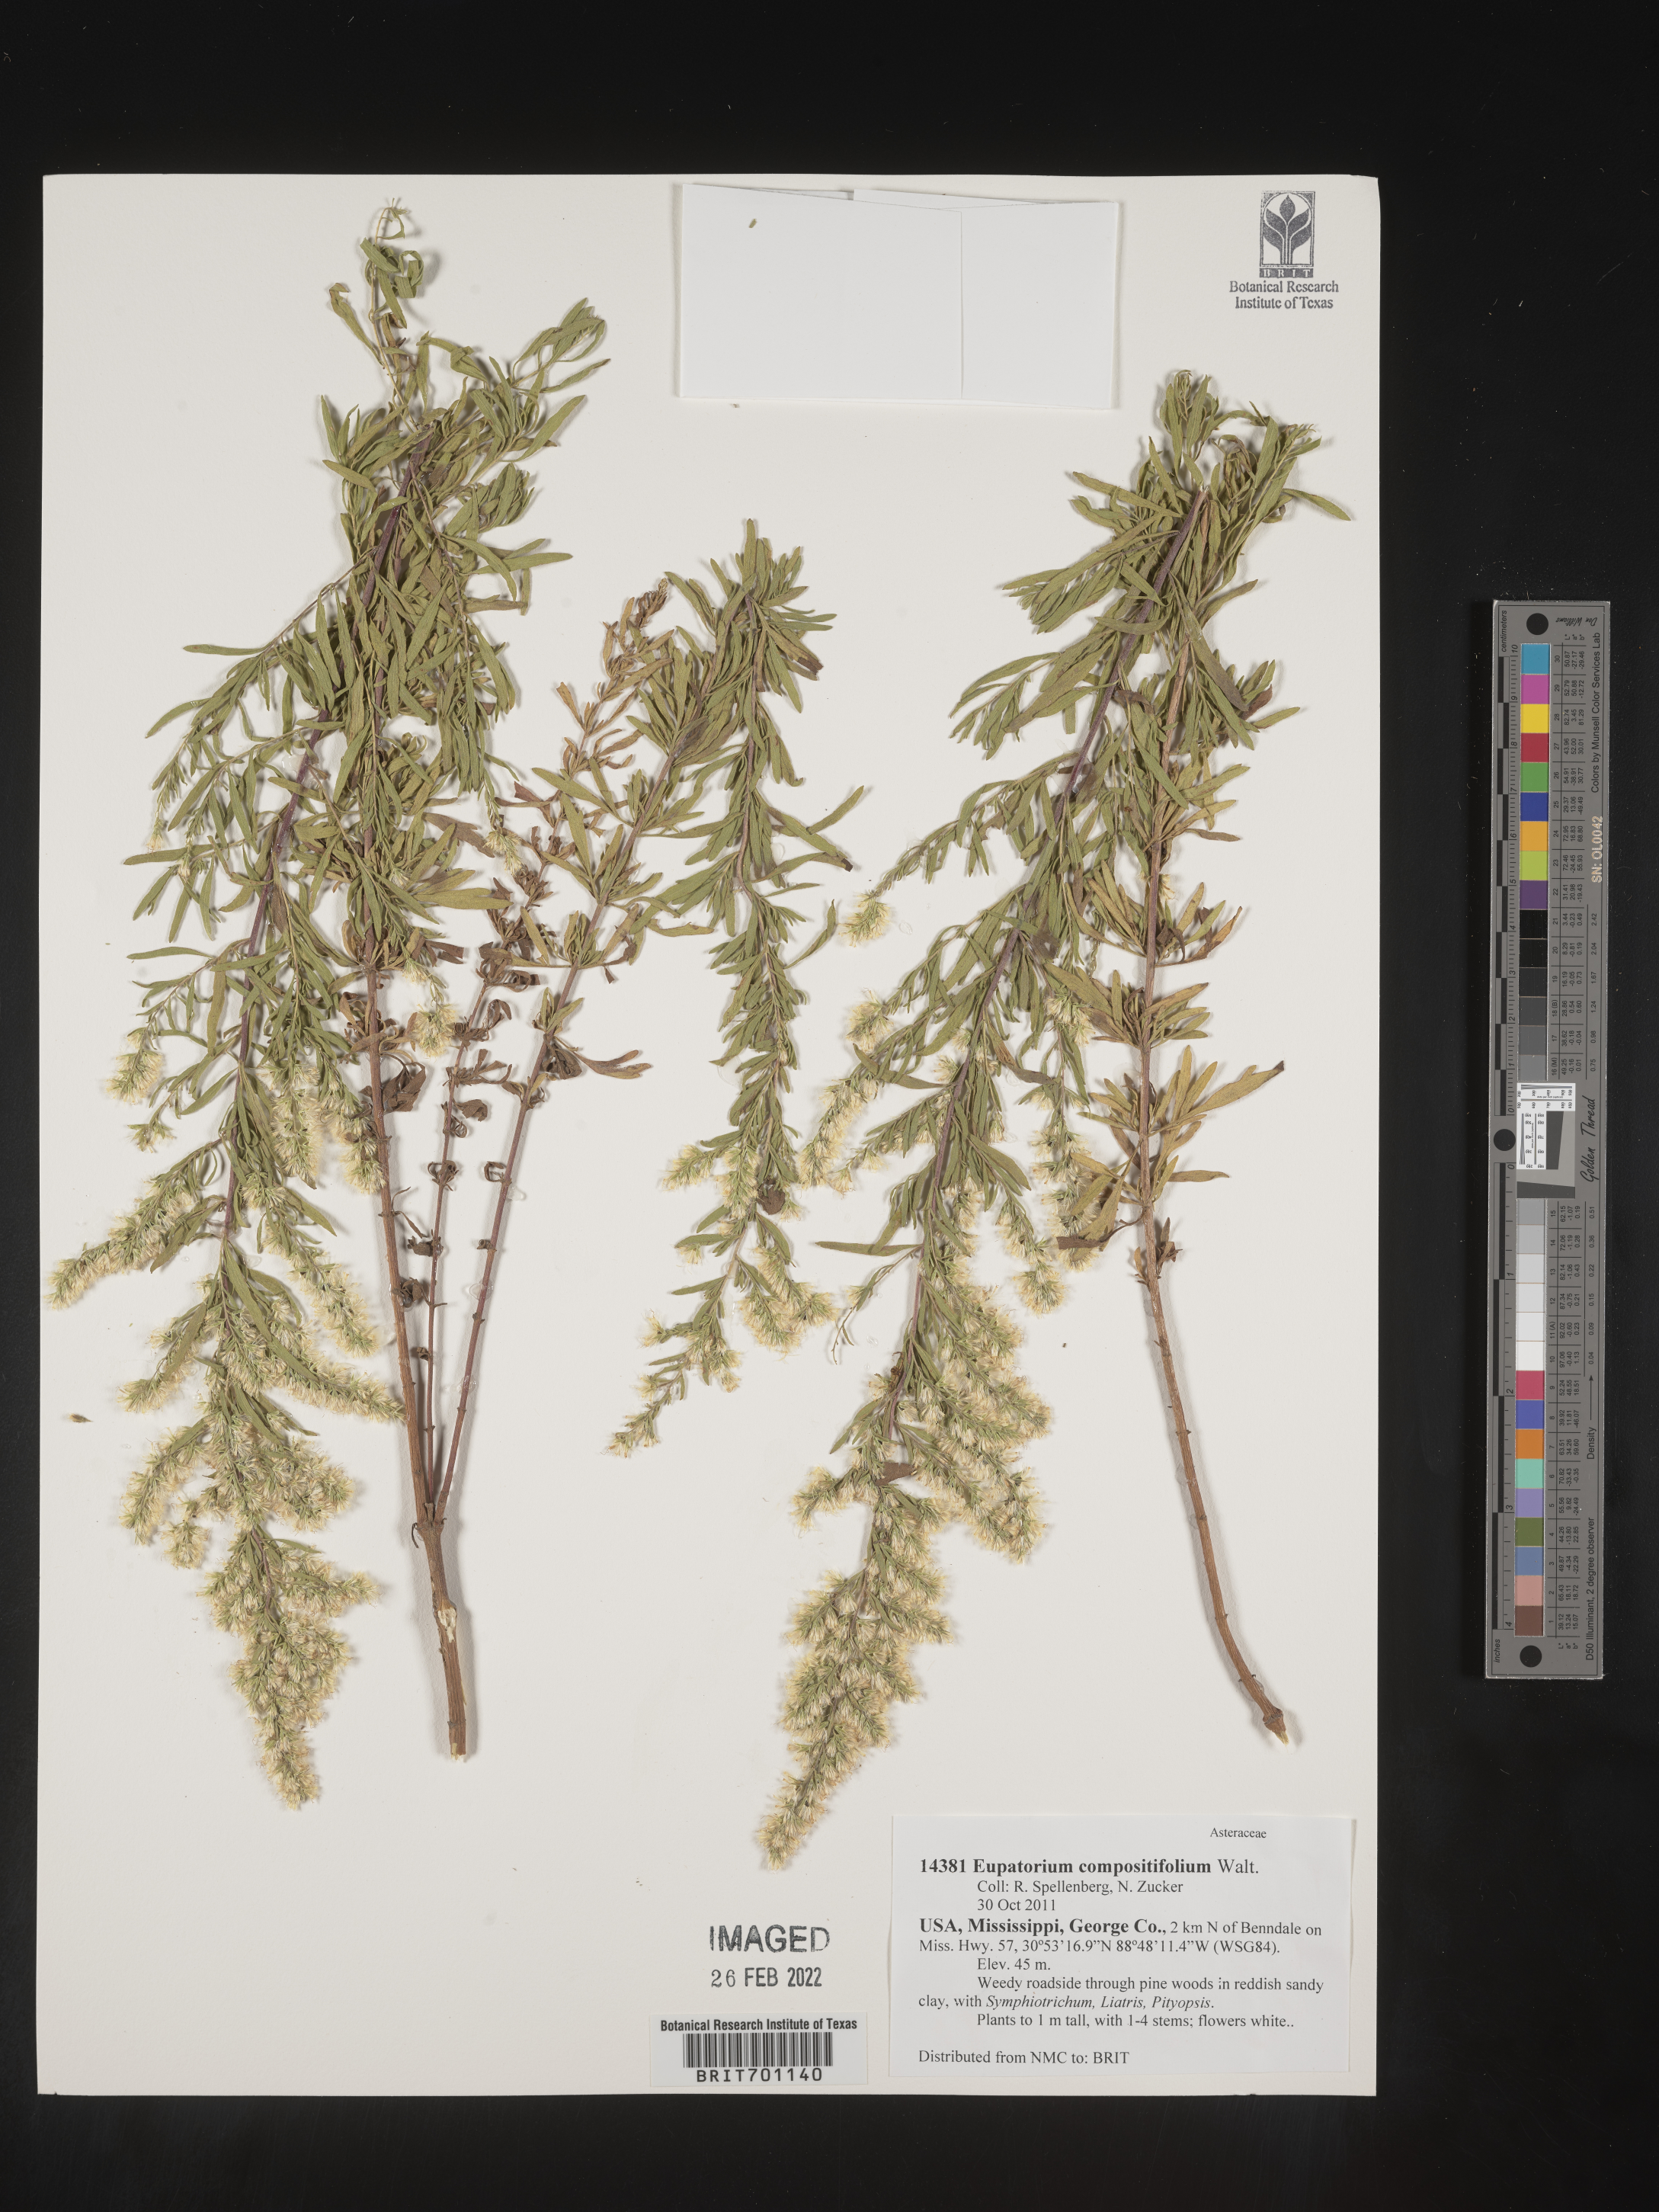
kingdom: Plantae
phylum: Tracheophyta
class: Magnoliopsida
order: Asterales
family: Asteraceae
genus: Eupatorium
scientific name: Eupatorium compositifolium
